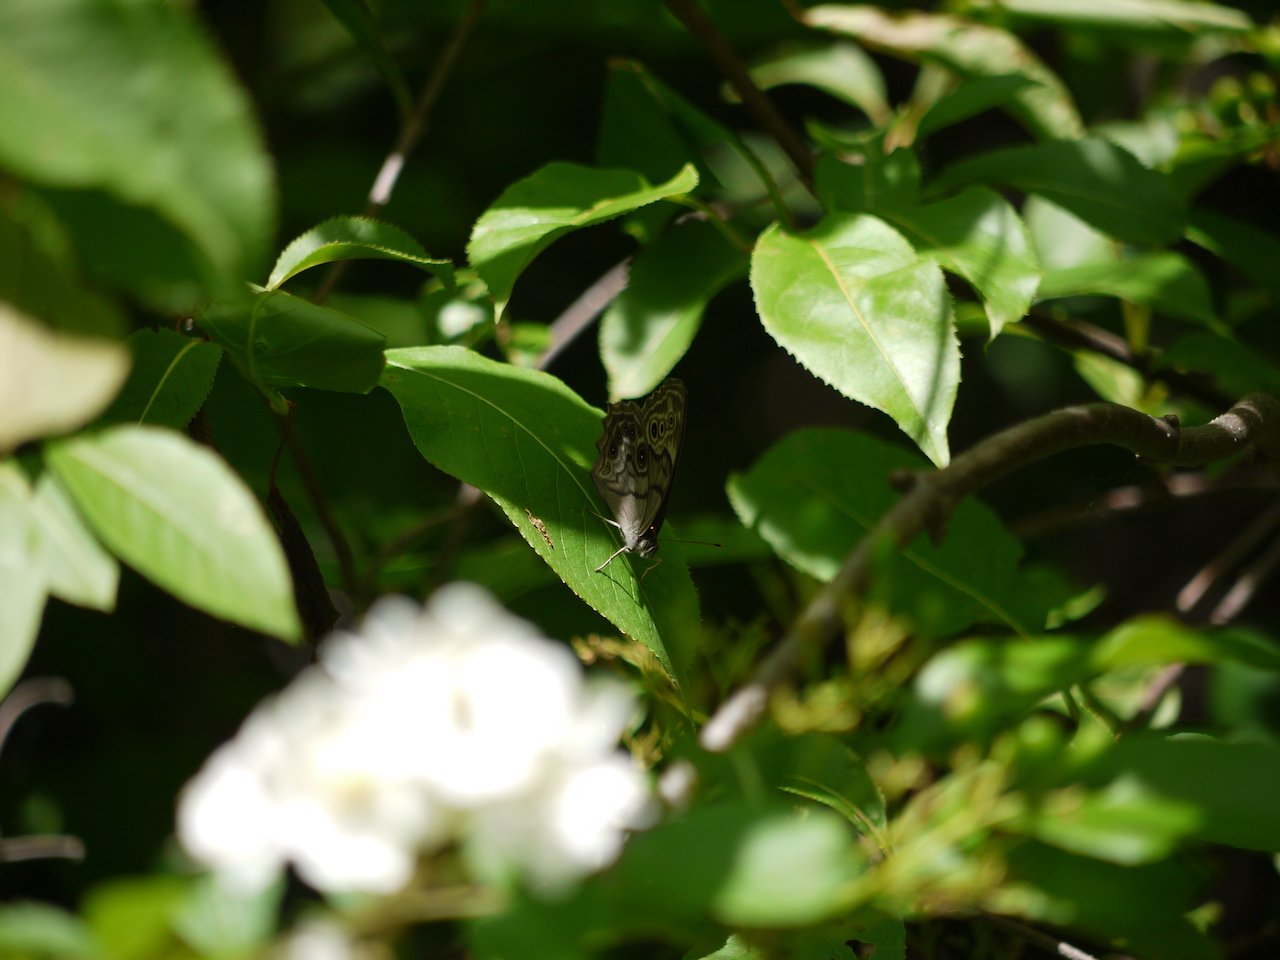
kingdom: Animalia
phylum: Arthropoda
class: Insecta
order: Lepidoptera
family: Nymphalidae
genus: Lethe
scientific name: Lethe anthedon
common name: Northern Pearly-Eye
